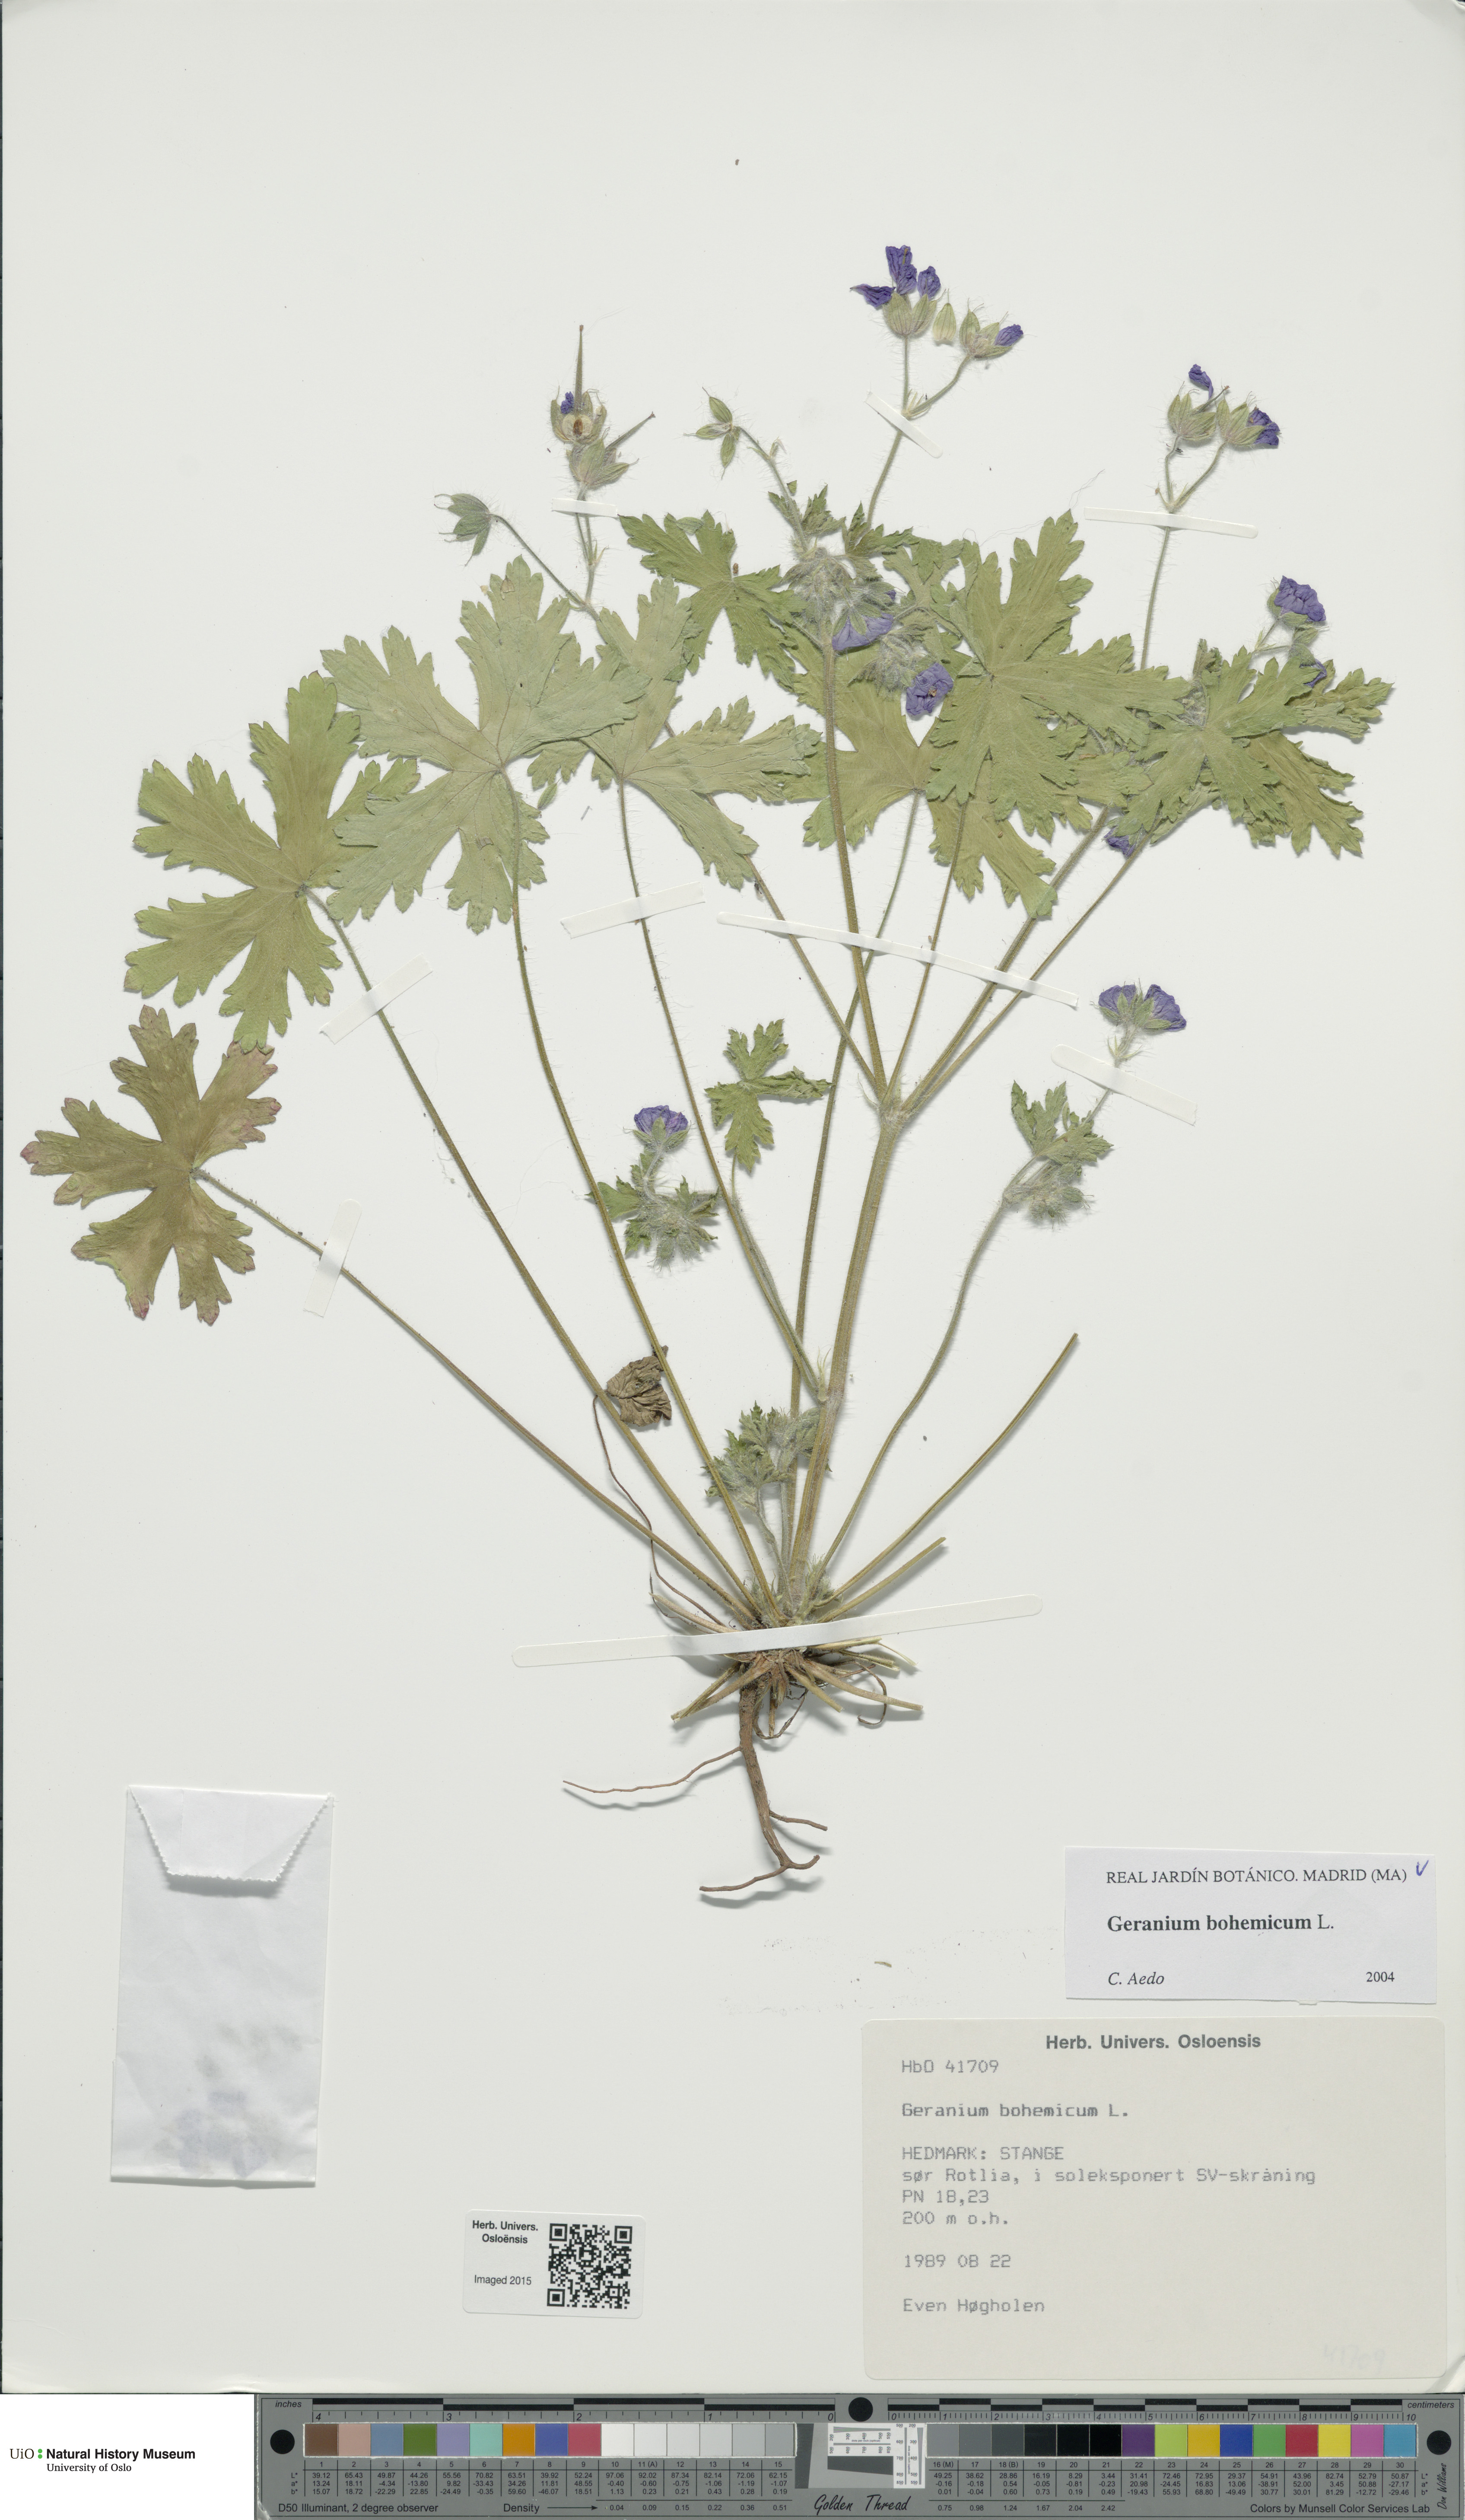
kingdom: Plantae
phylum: Tracheophyta
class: Magnoliopsida
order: Geraniales
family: Geraniaceae
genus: Geranium
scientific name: Geranium bohemicum
